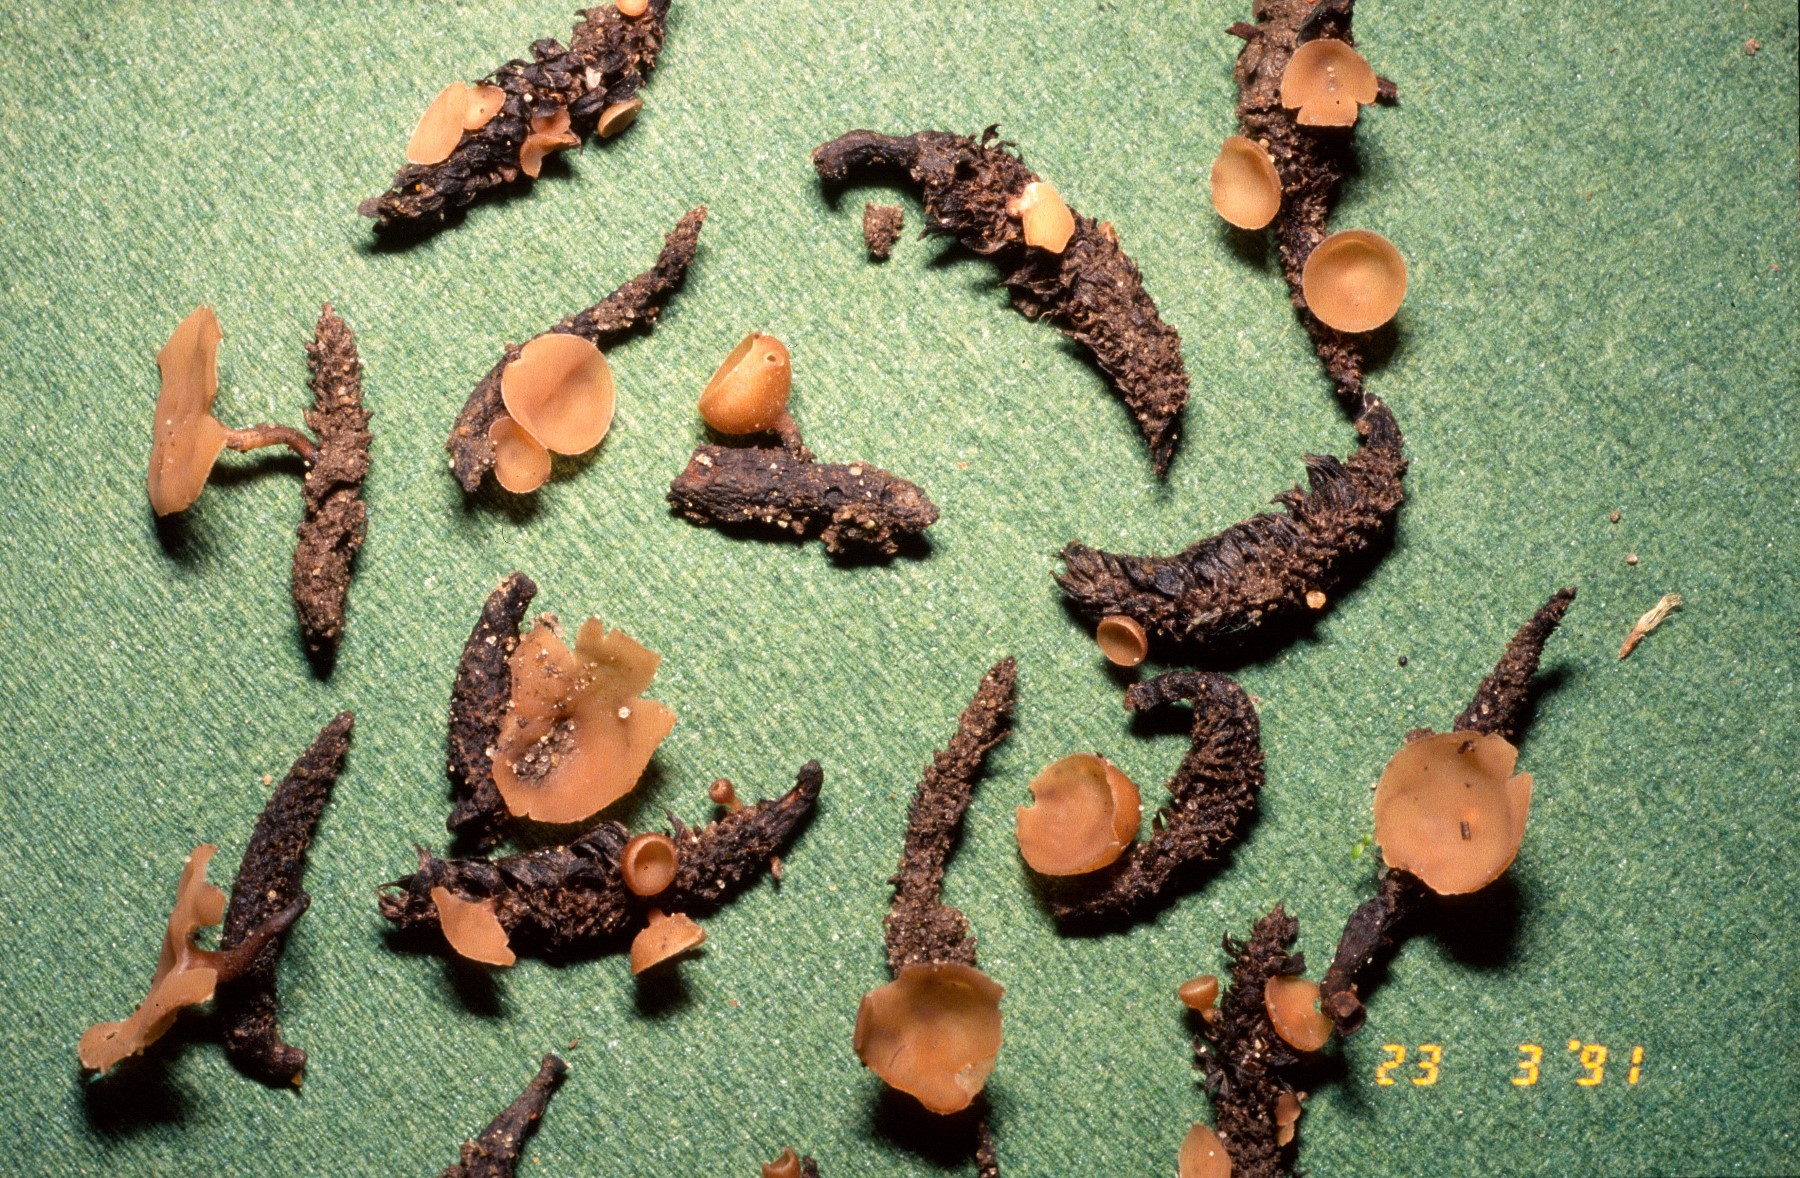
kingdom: Fungi
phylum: Ascomycota
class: Leotiomycetes
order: Helotiales
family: Sclerotiniaceae
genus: Ciboria
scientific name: Ciboria caucus
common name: rakle-knoldskive
